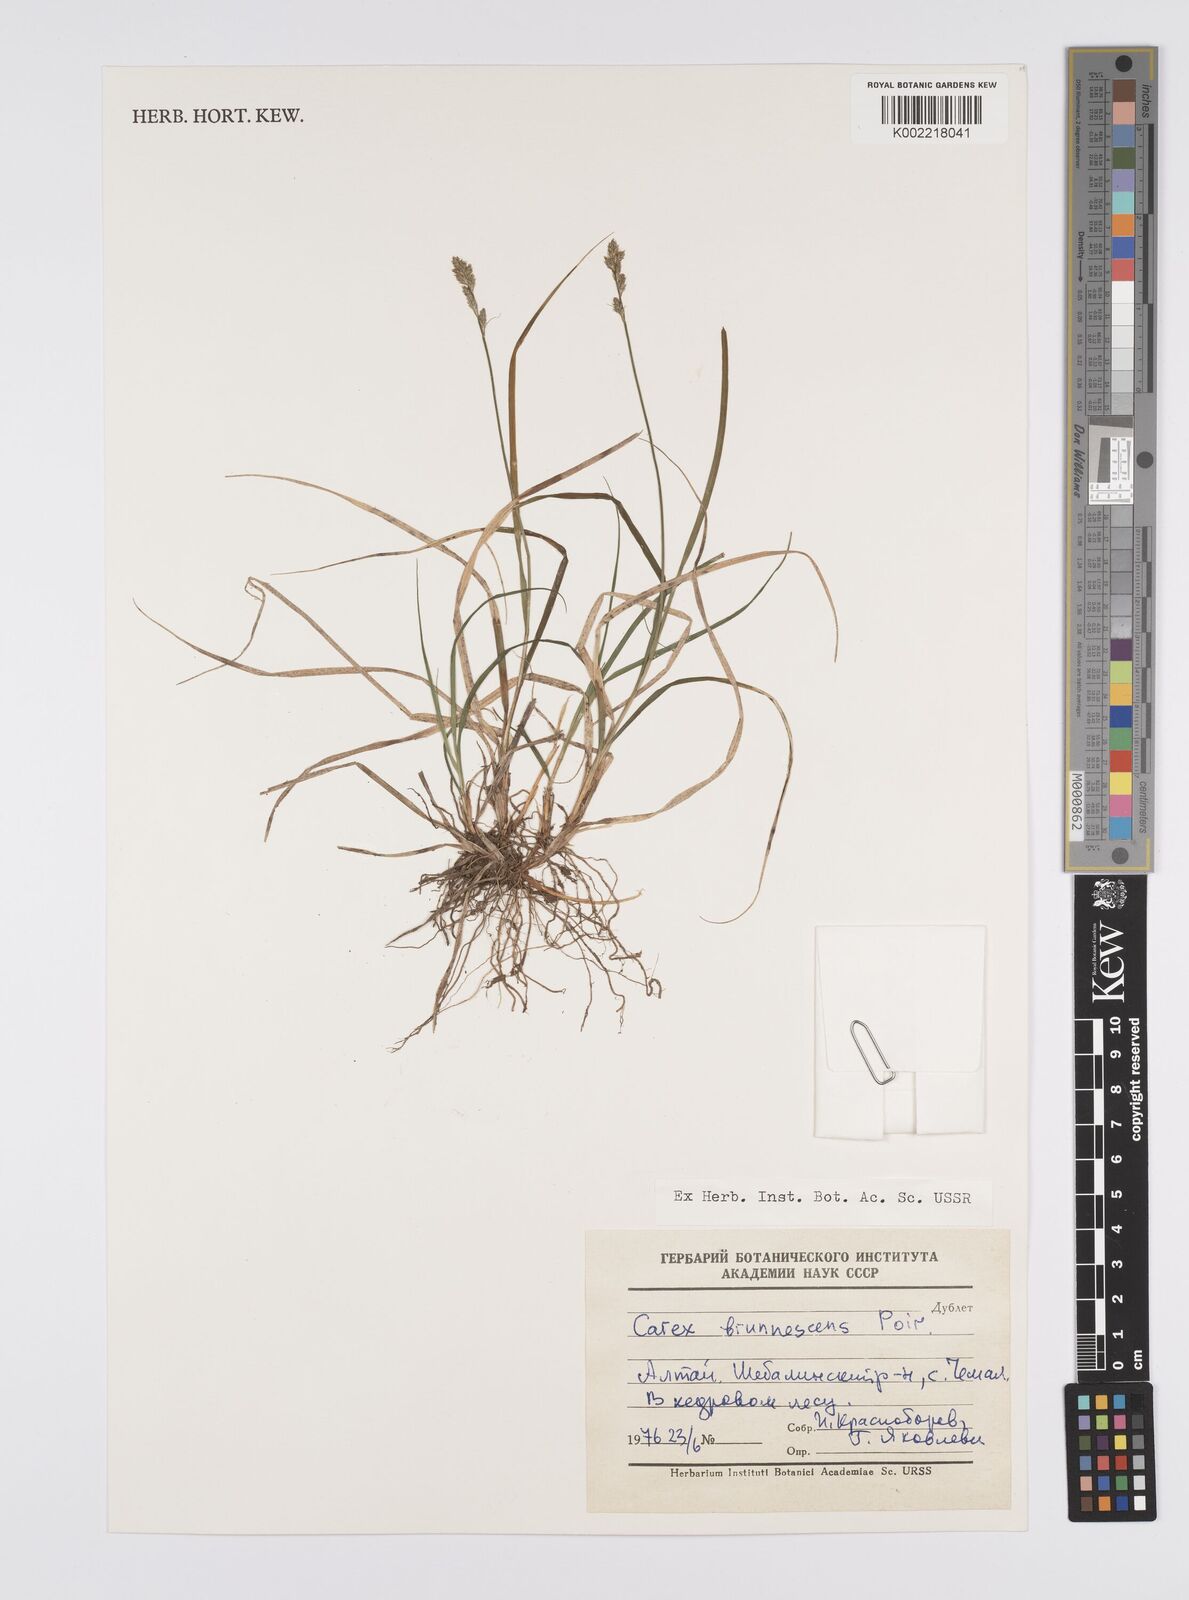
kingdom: Plantae
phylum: Tracheophyta
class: Liliopsida
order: Poales
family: Cyperaceae
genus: Carex
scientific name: Carex brunnescens
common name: Brown sedge
